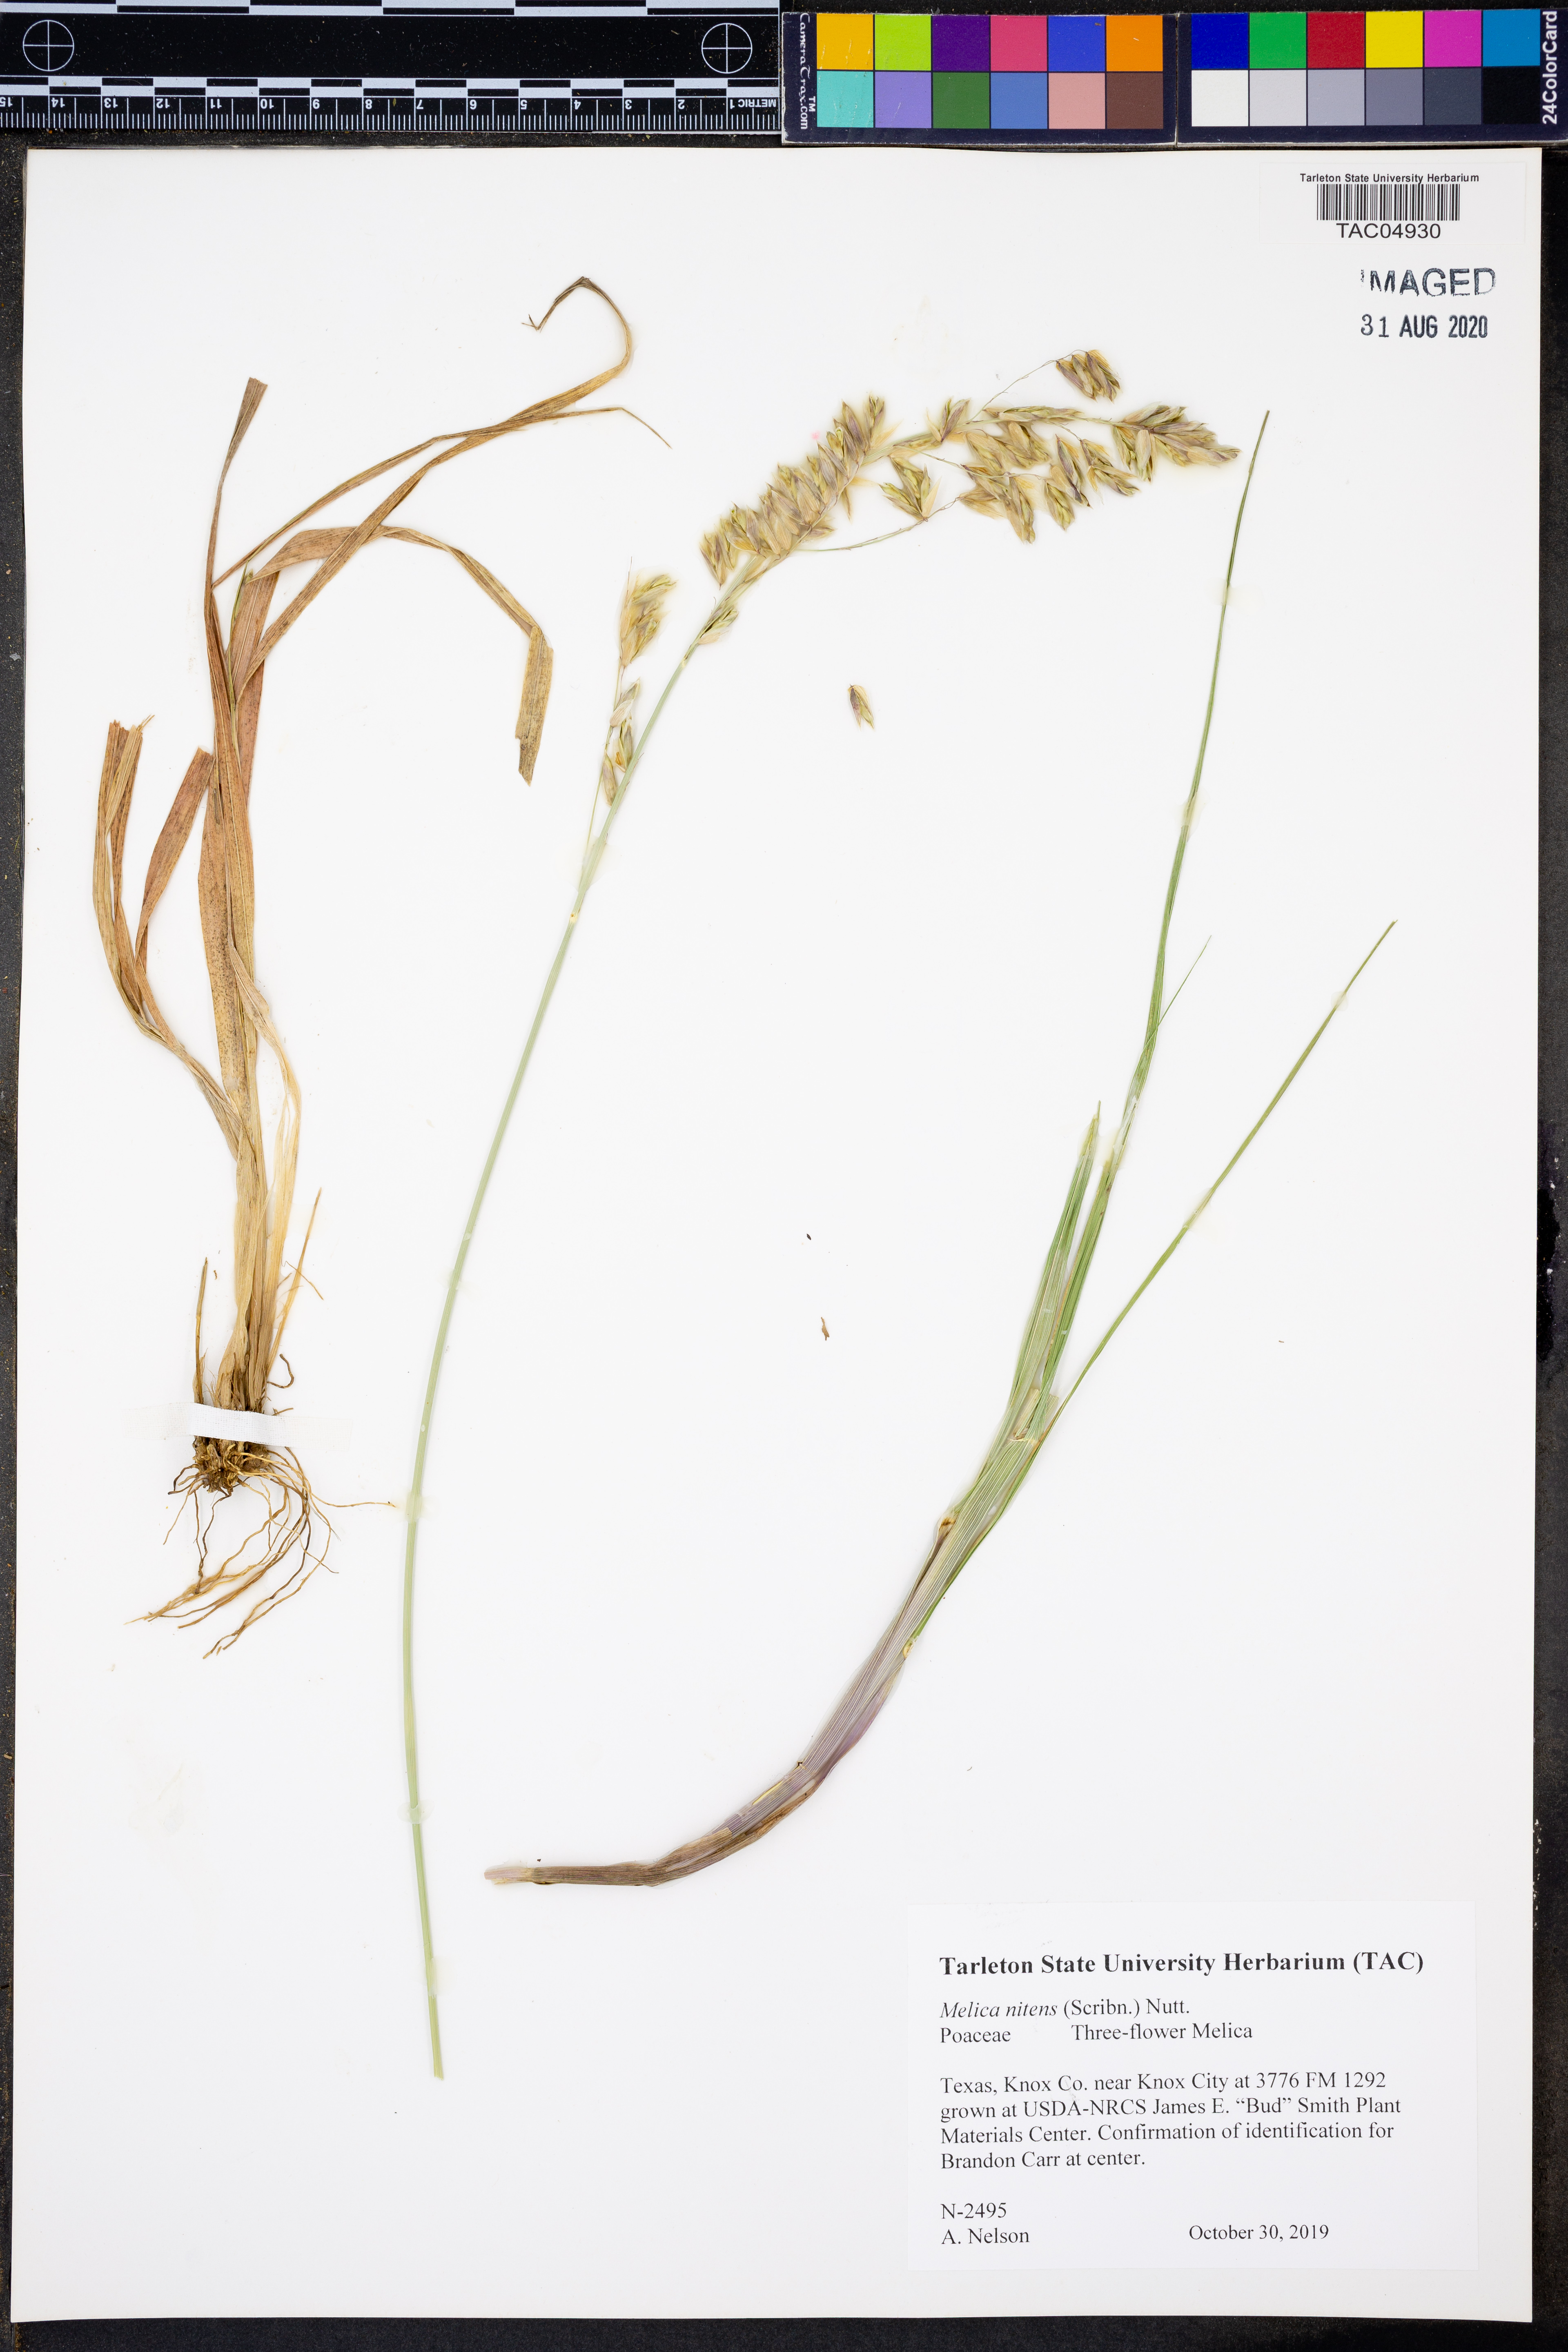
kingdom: Plantae
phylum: Tracheophyta
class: Liliopsida
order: Poales
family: Poaceae
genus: Melica
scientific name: Melica nitens
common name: Three-flower melic
